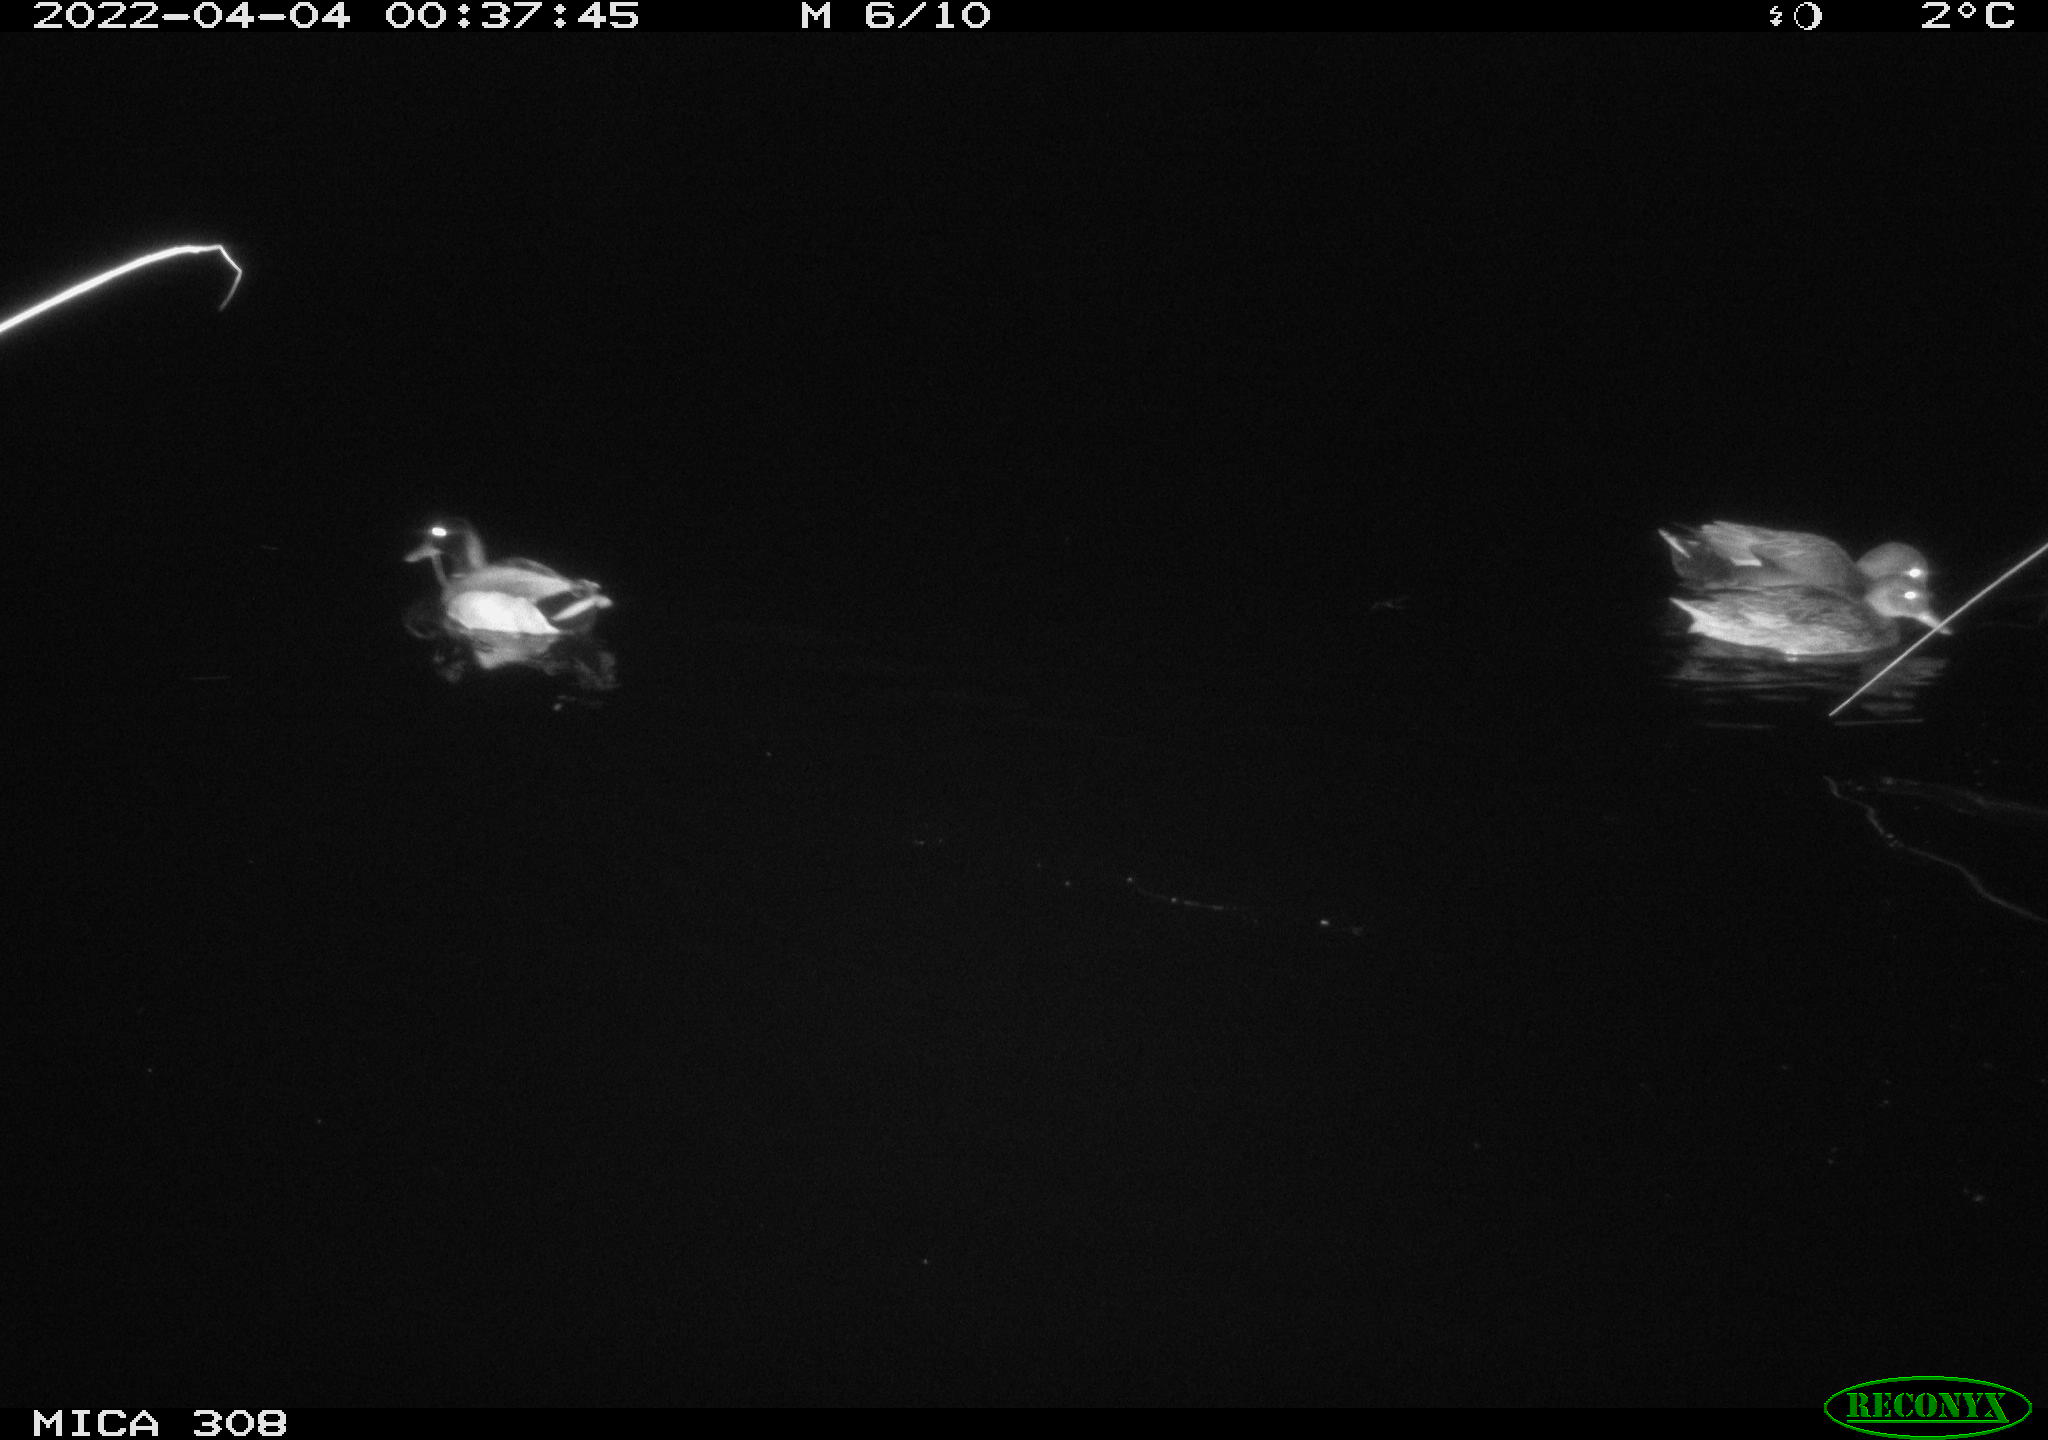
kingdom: Animalia
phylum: Chordata
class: Aves
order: Anseriformes
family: Anatidae
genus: Anas
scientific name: Anas platyrhynchos
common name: Mallard
